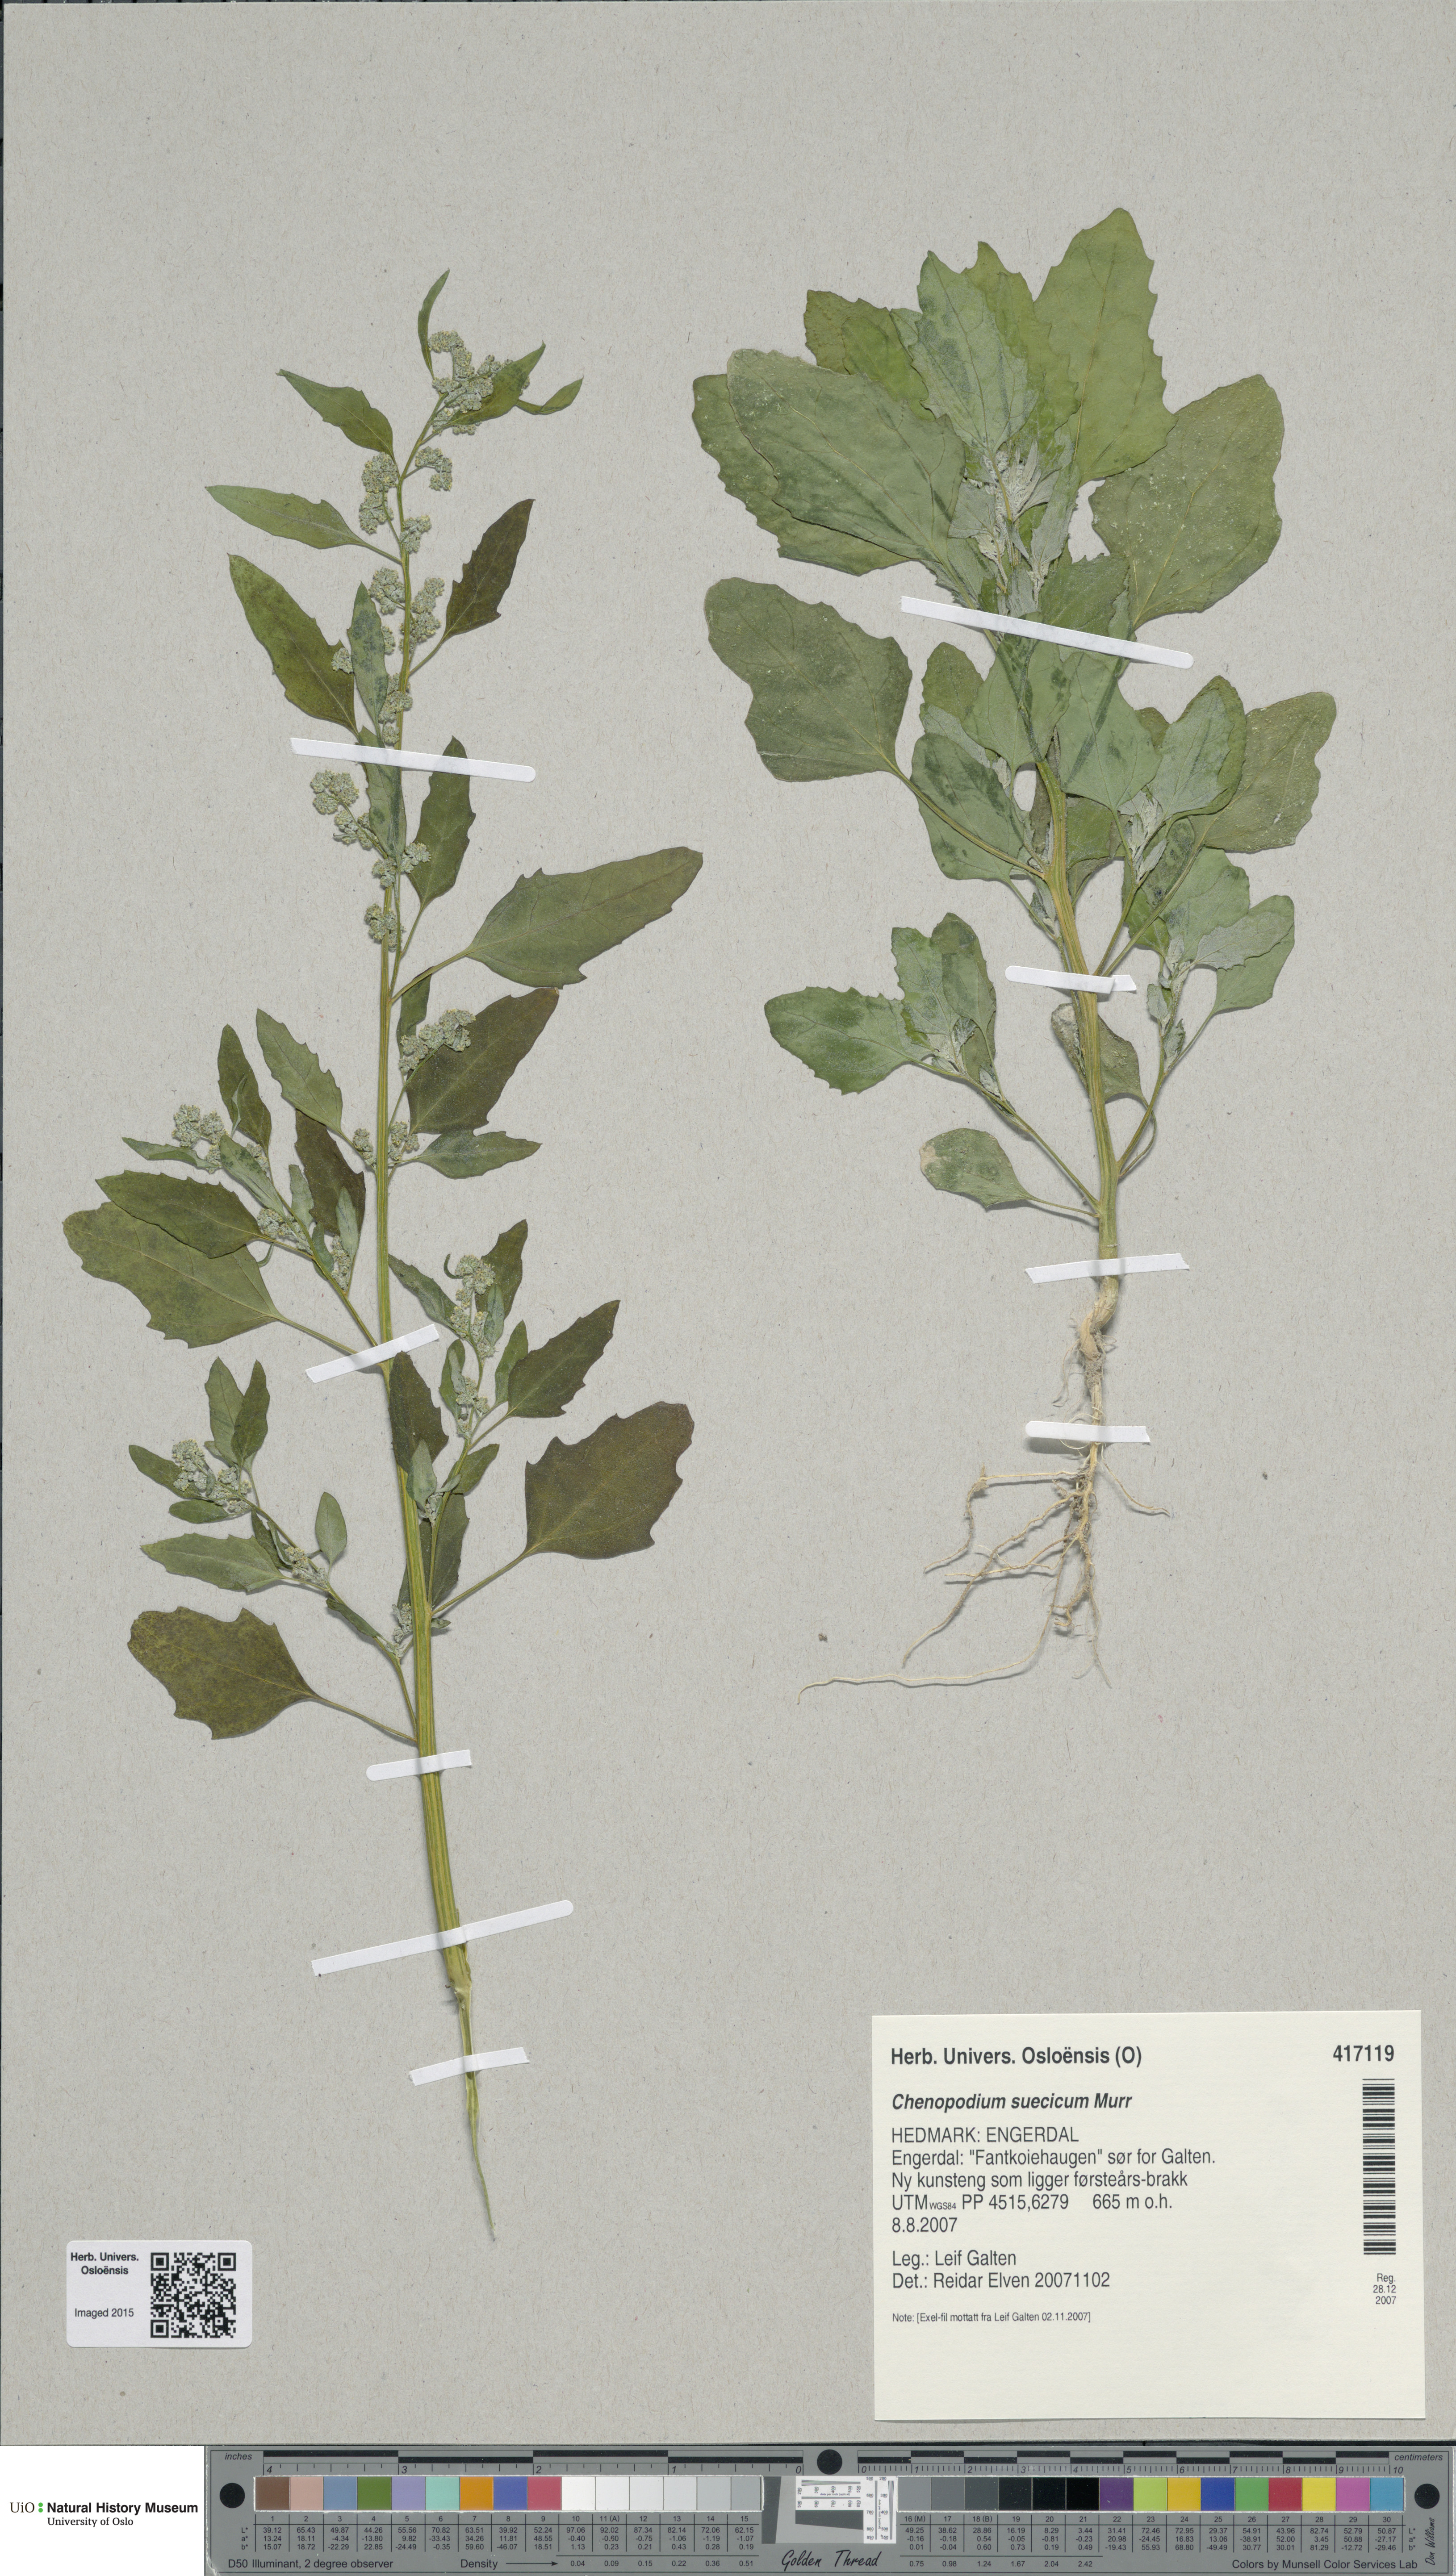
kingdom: Plantae
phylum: Tracheophyta
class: Magnoliopsida
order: Caryophyllales
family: Amaranthaceae
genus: Chenopodium
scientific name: Chenopodium suecicum
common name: Swedish goosefoot
